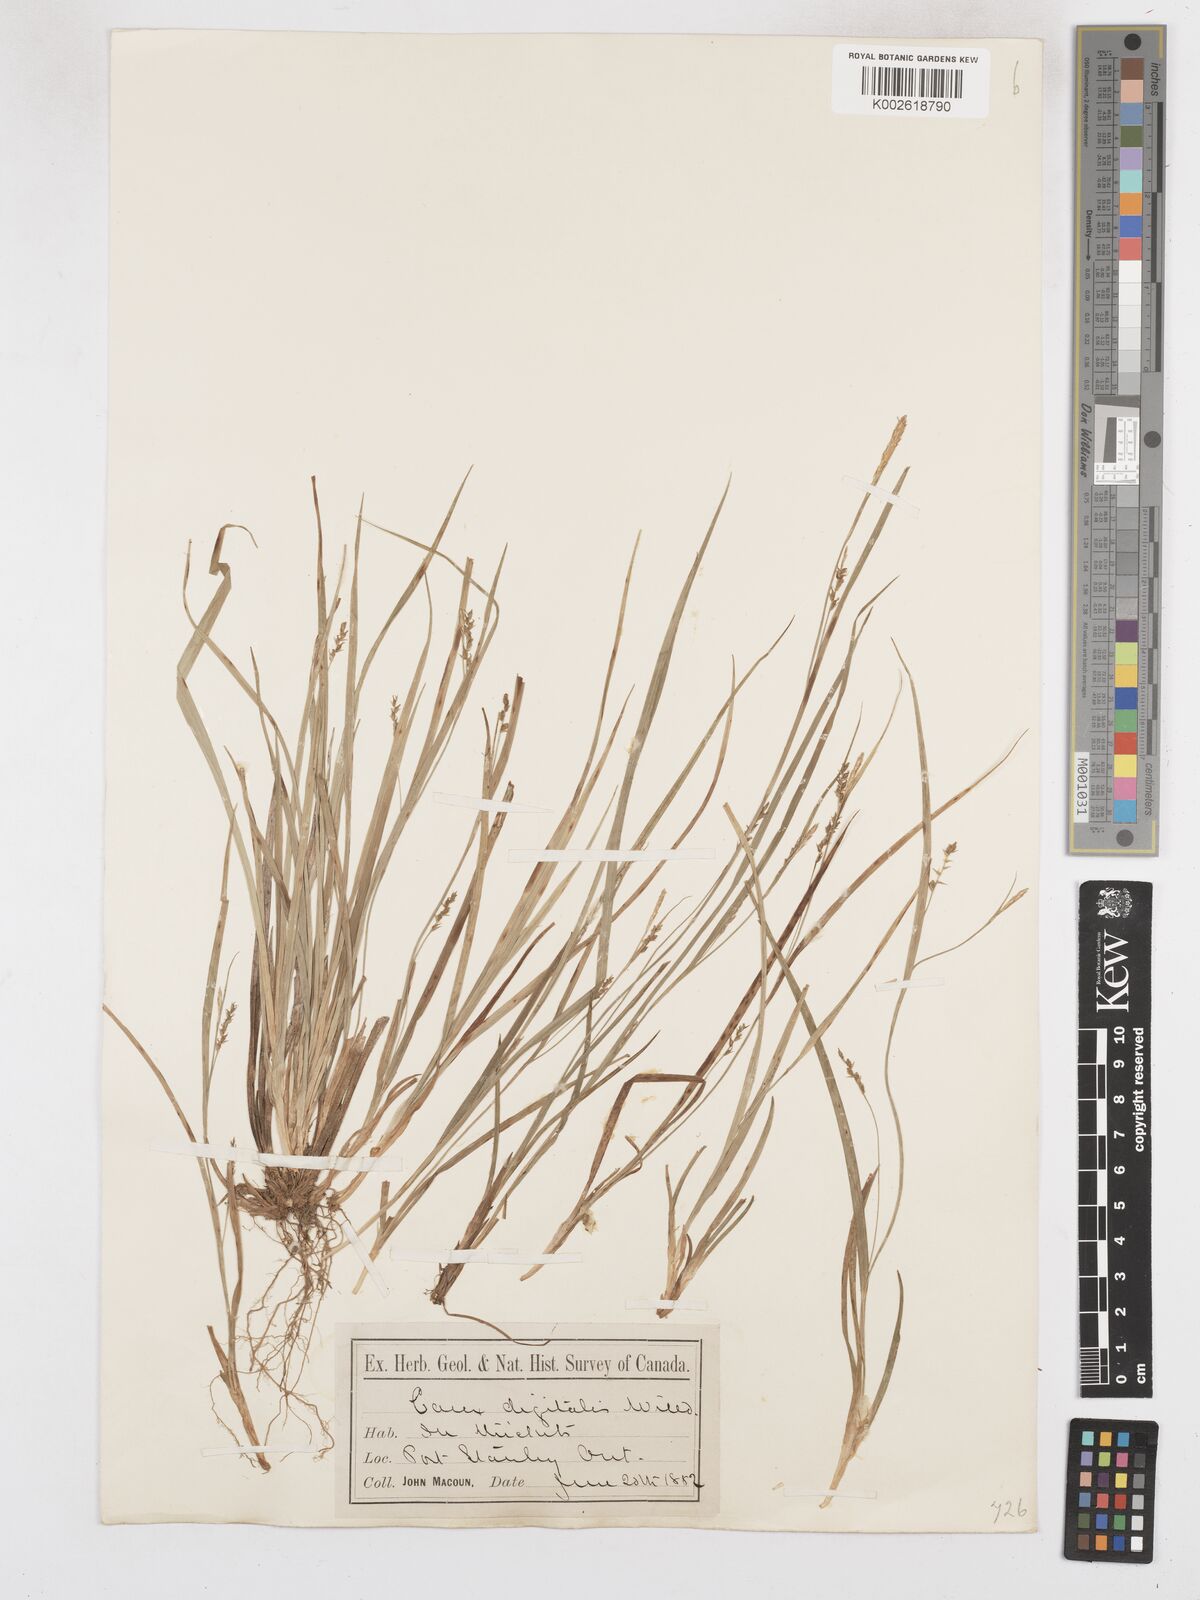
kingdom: Plantae
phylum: Tracheophyta
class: Liliopsida
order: Poales
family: Cyperaceae
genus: Carex
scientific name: Carex digitalis
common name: Slender wood sedge
